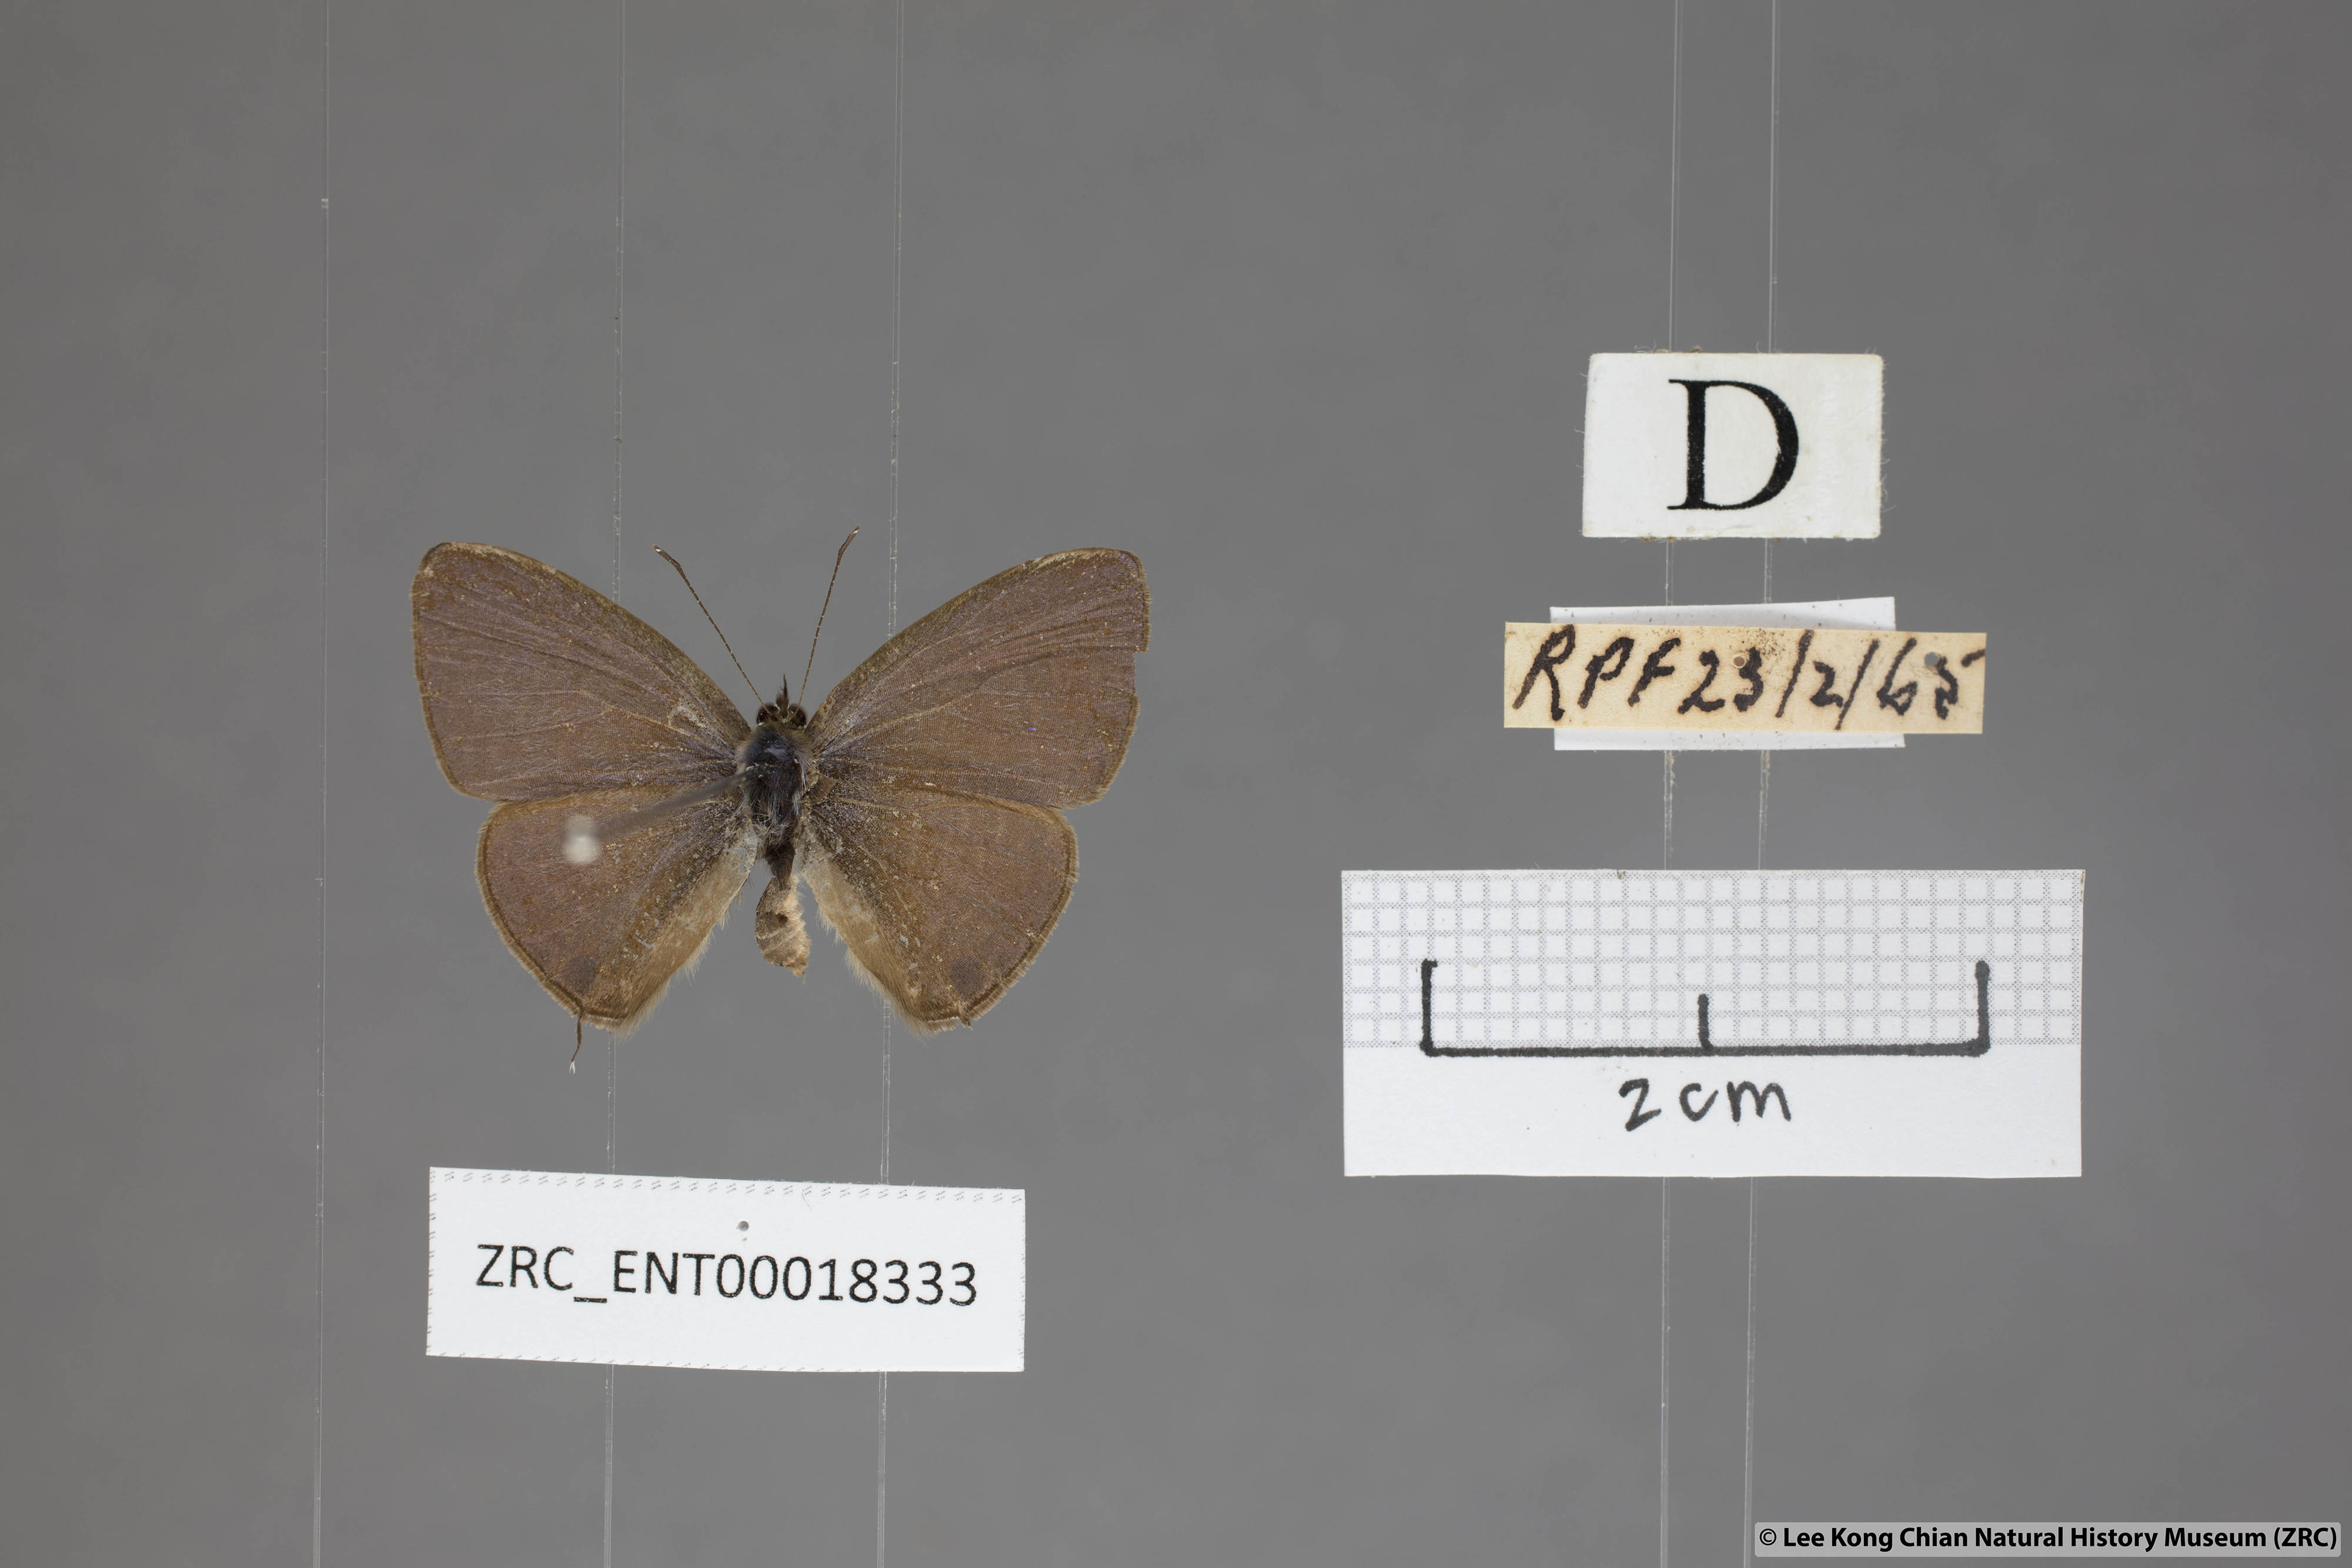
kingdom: Animalia
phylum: Arthropoda
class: Insecta
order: Lepidoptera
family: Lycaenidae
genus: Nacaduba
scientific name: Nacaduba beroe
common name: Opaque sixline blue
